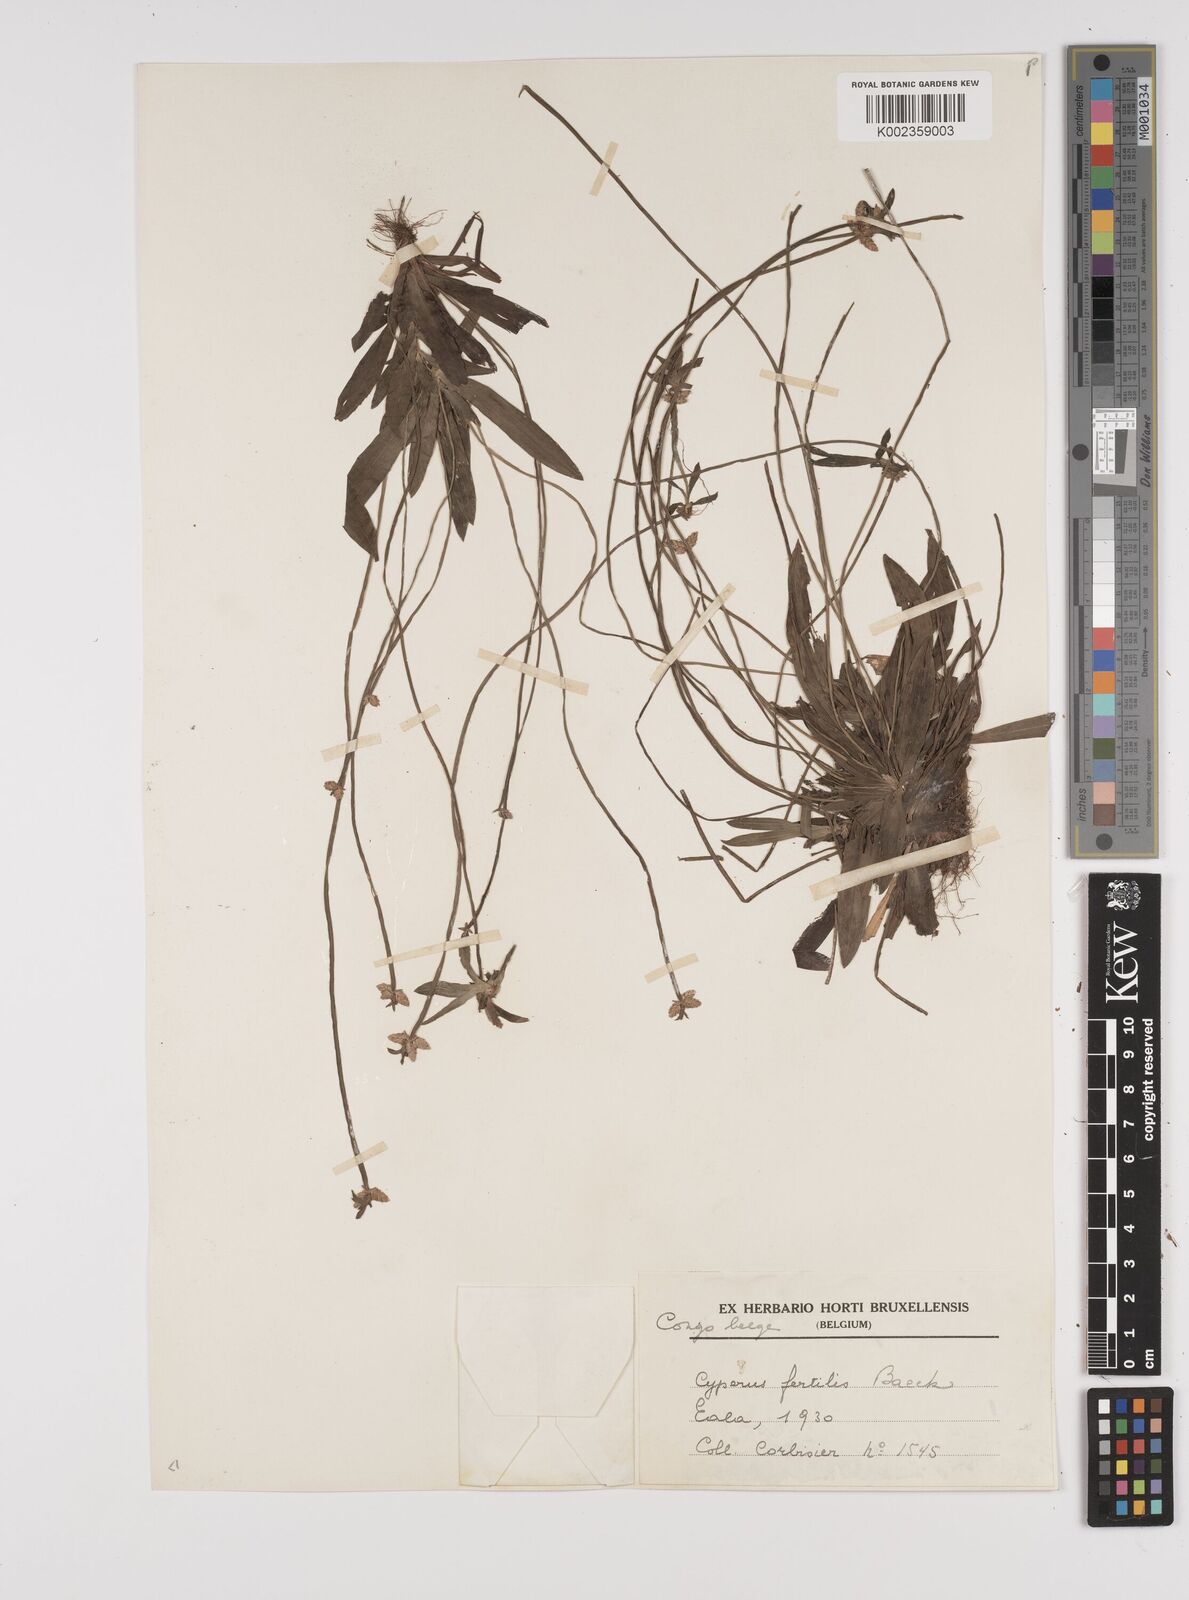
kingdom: Plantae
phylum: Tracheophyta
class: Liliopsida
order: Poales
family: Cyperaceae
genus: Cyperus
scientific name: Cyperus fertilis
